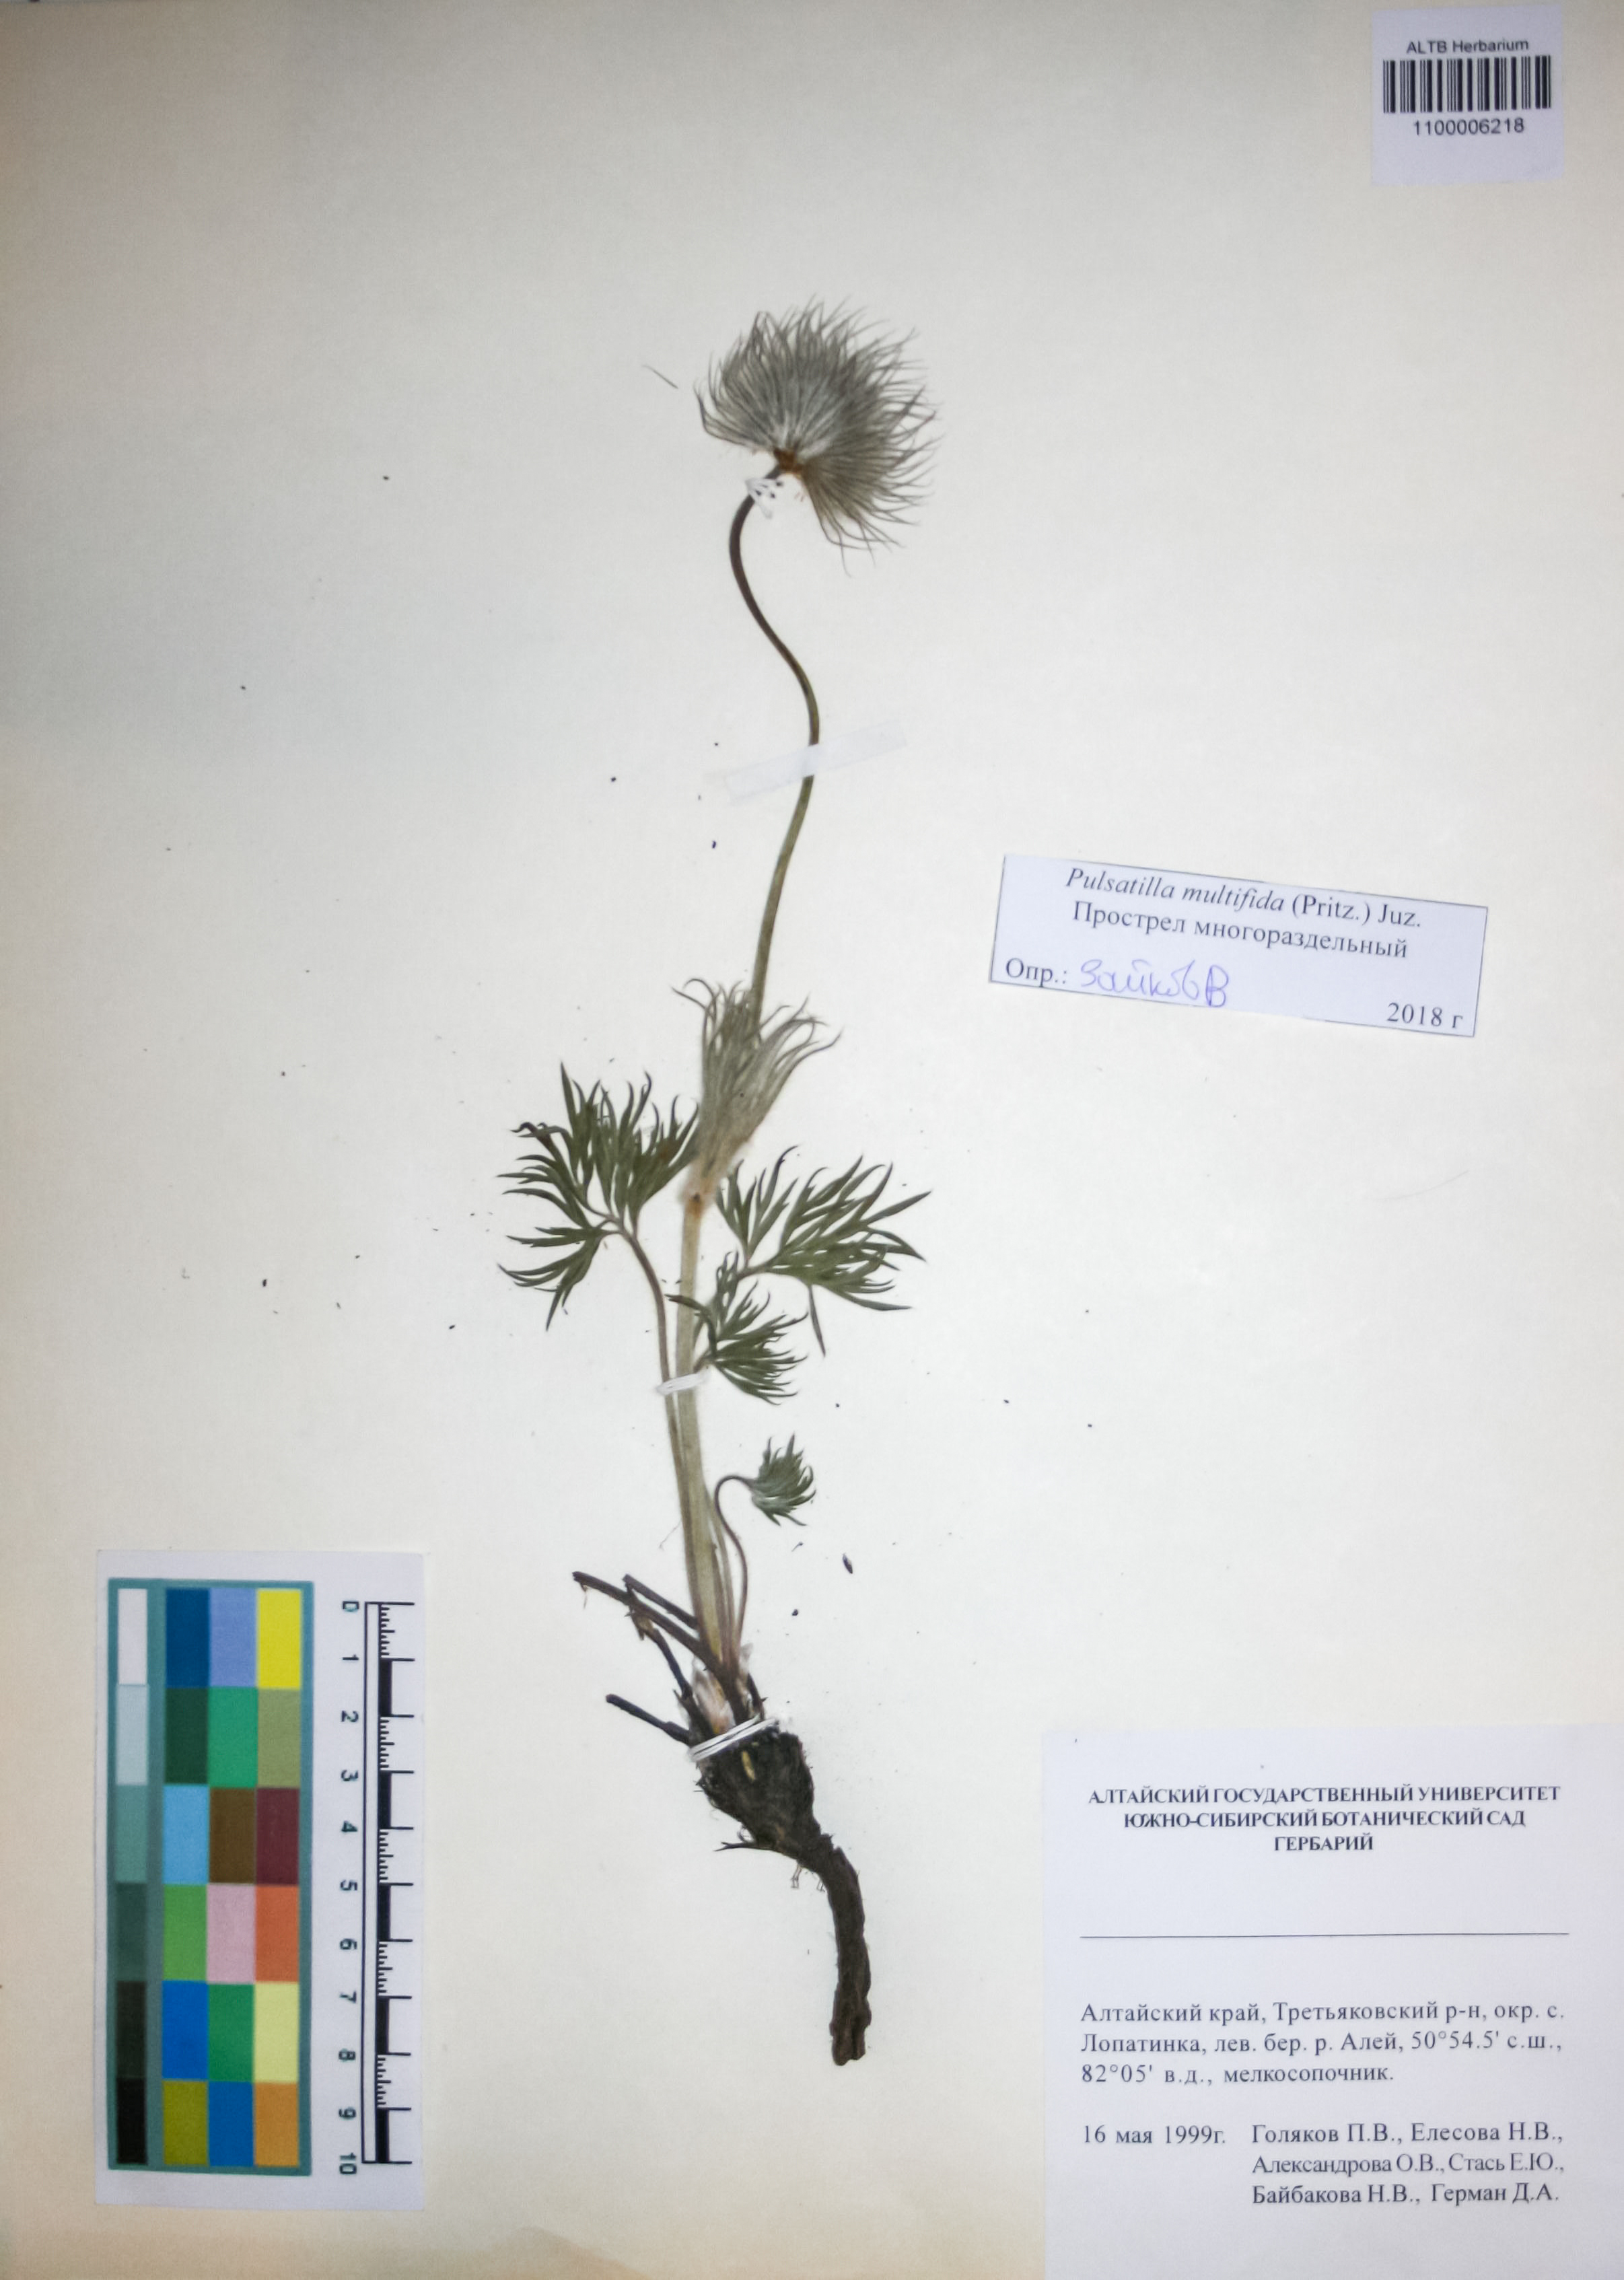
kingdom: Plantae
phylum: Tracheophyta
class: Magnoliopsida
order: Ranunculales
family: Ranunculaceae
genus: Pulsatilla
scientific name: Pulsatilla patens
